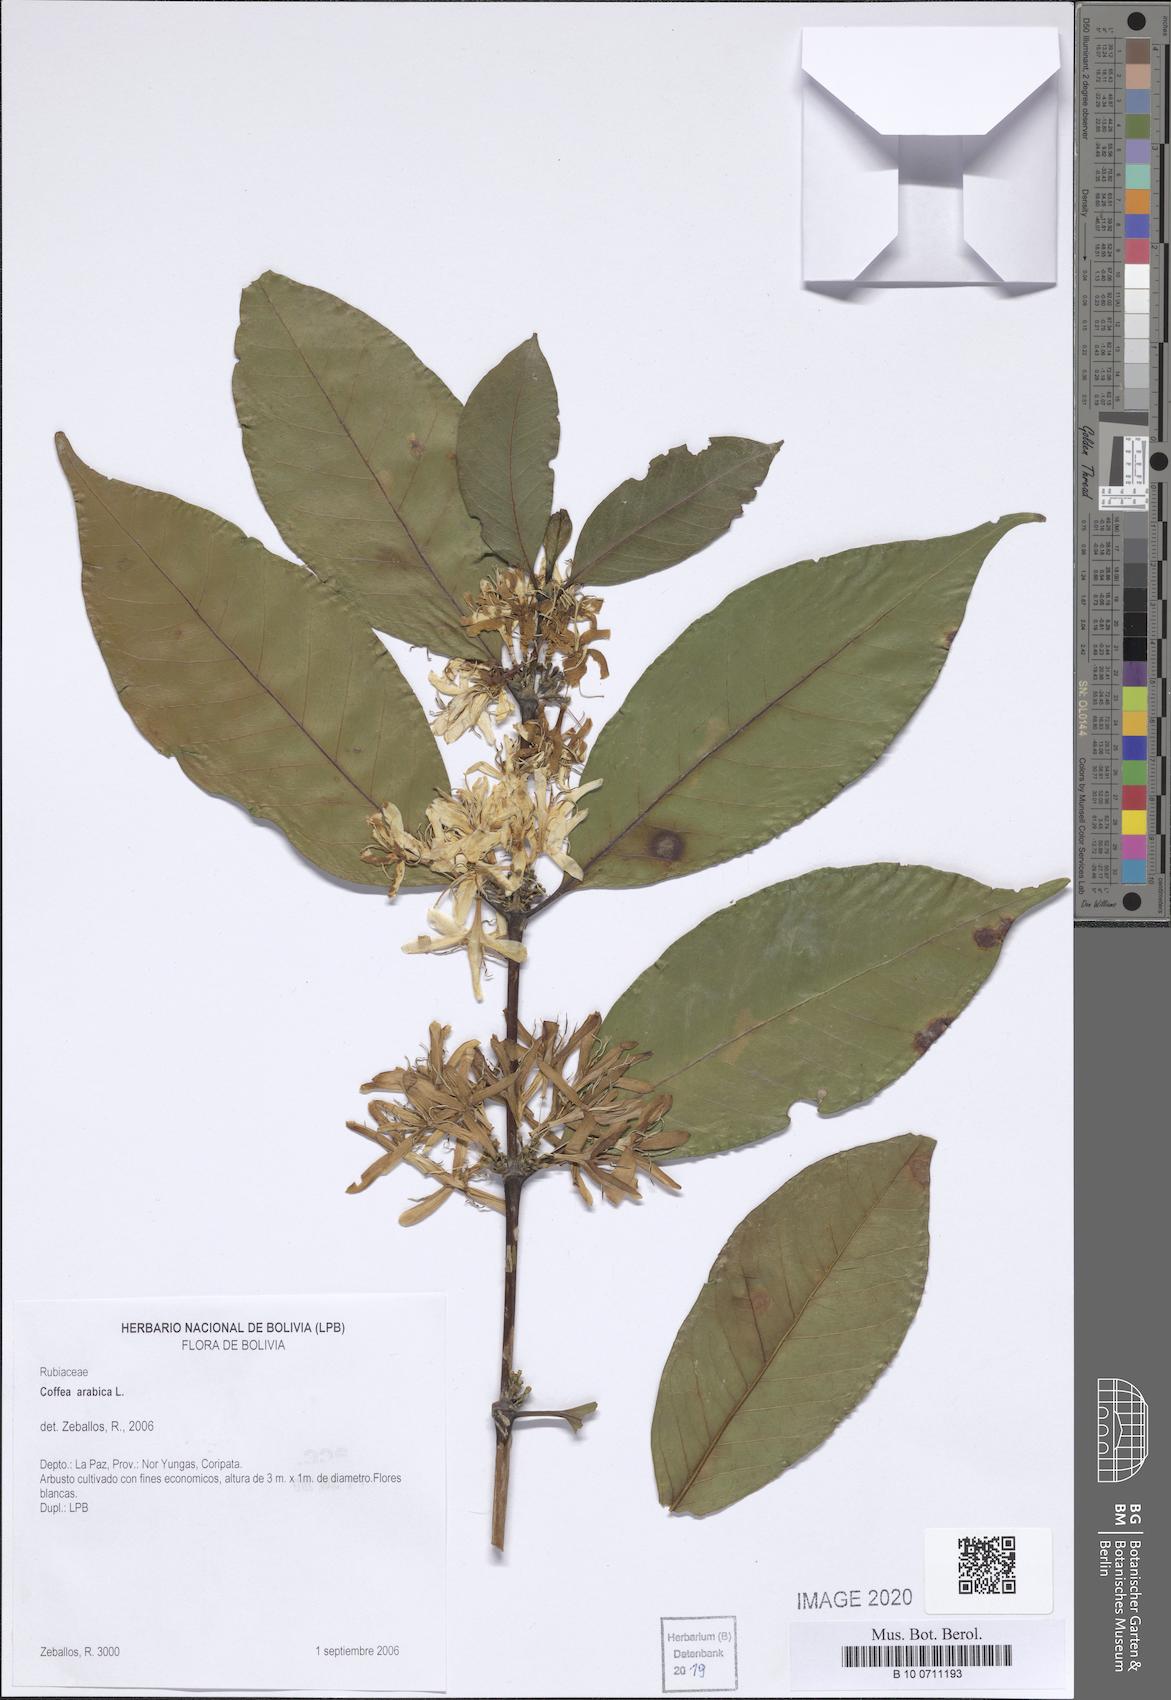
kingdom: Plantae
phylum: Tracheophyta
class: Magnoliopsida
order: Gentianales
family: Rubiaceae
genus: Coffea
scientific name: Coffea arabica
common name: Coffee
